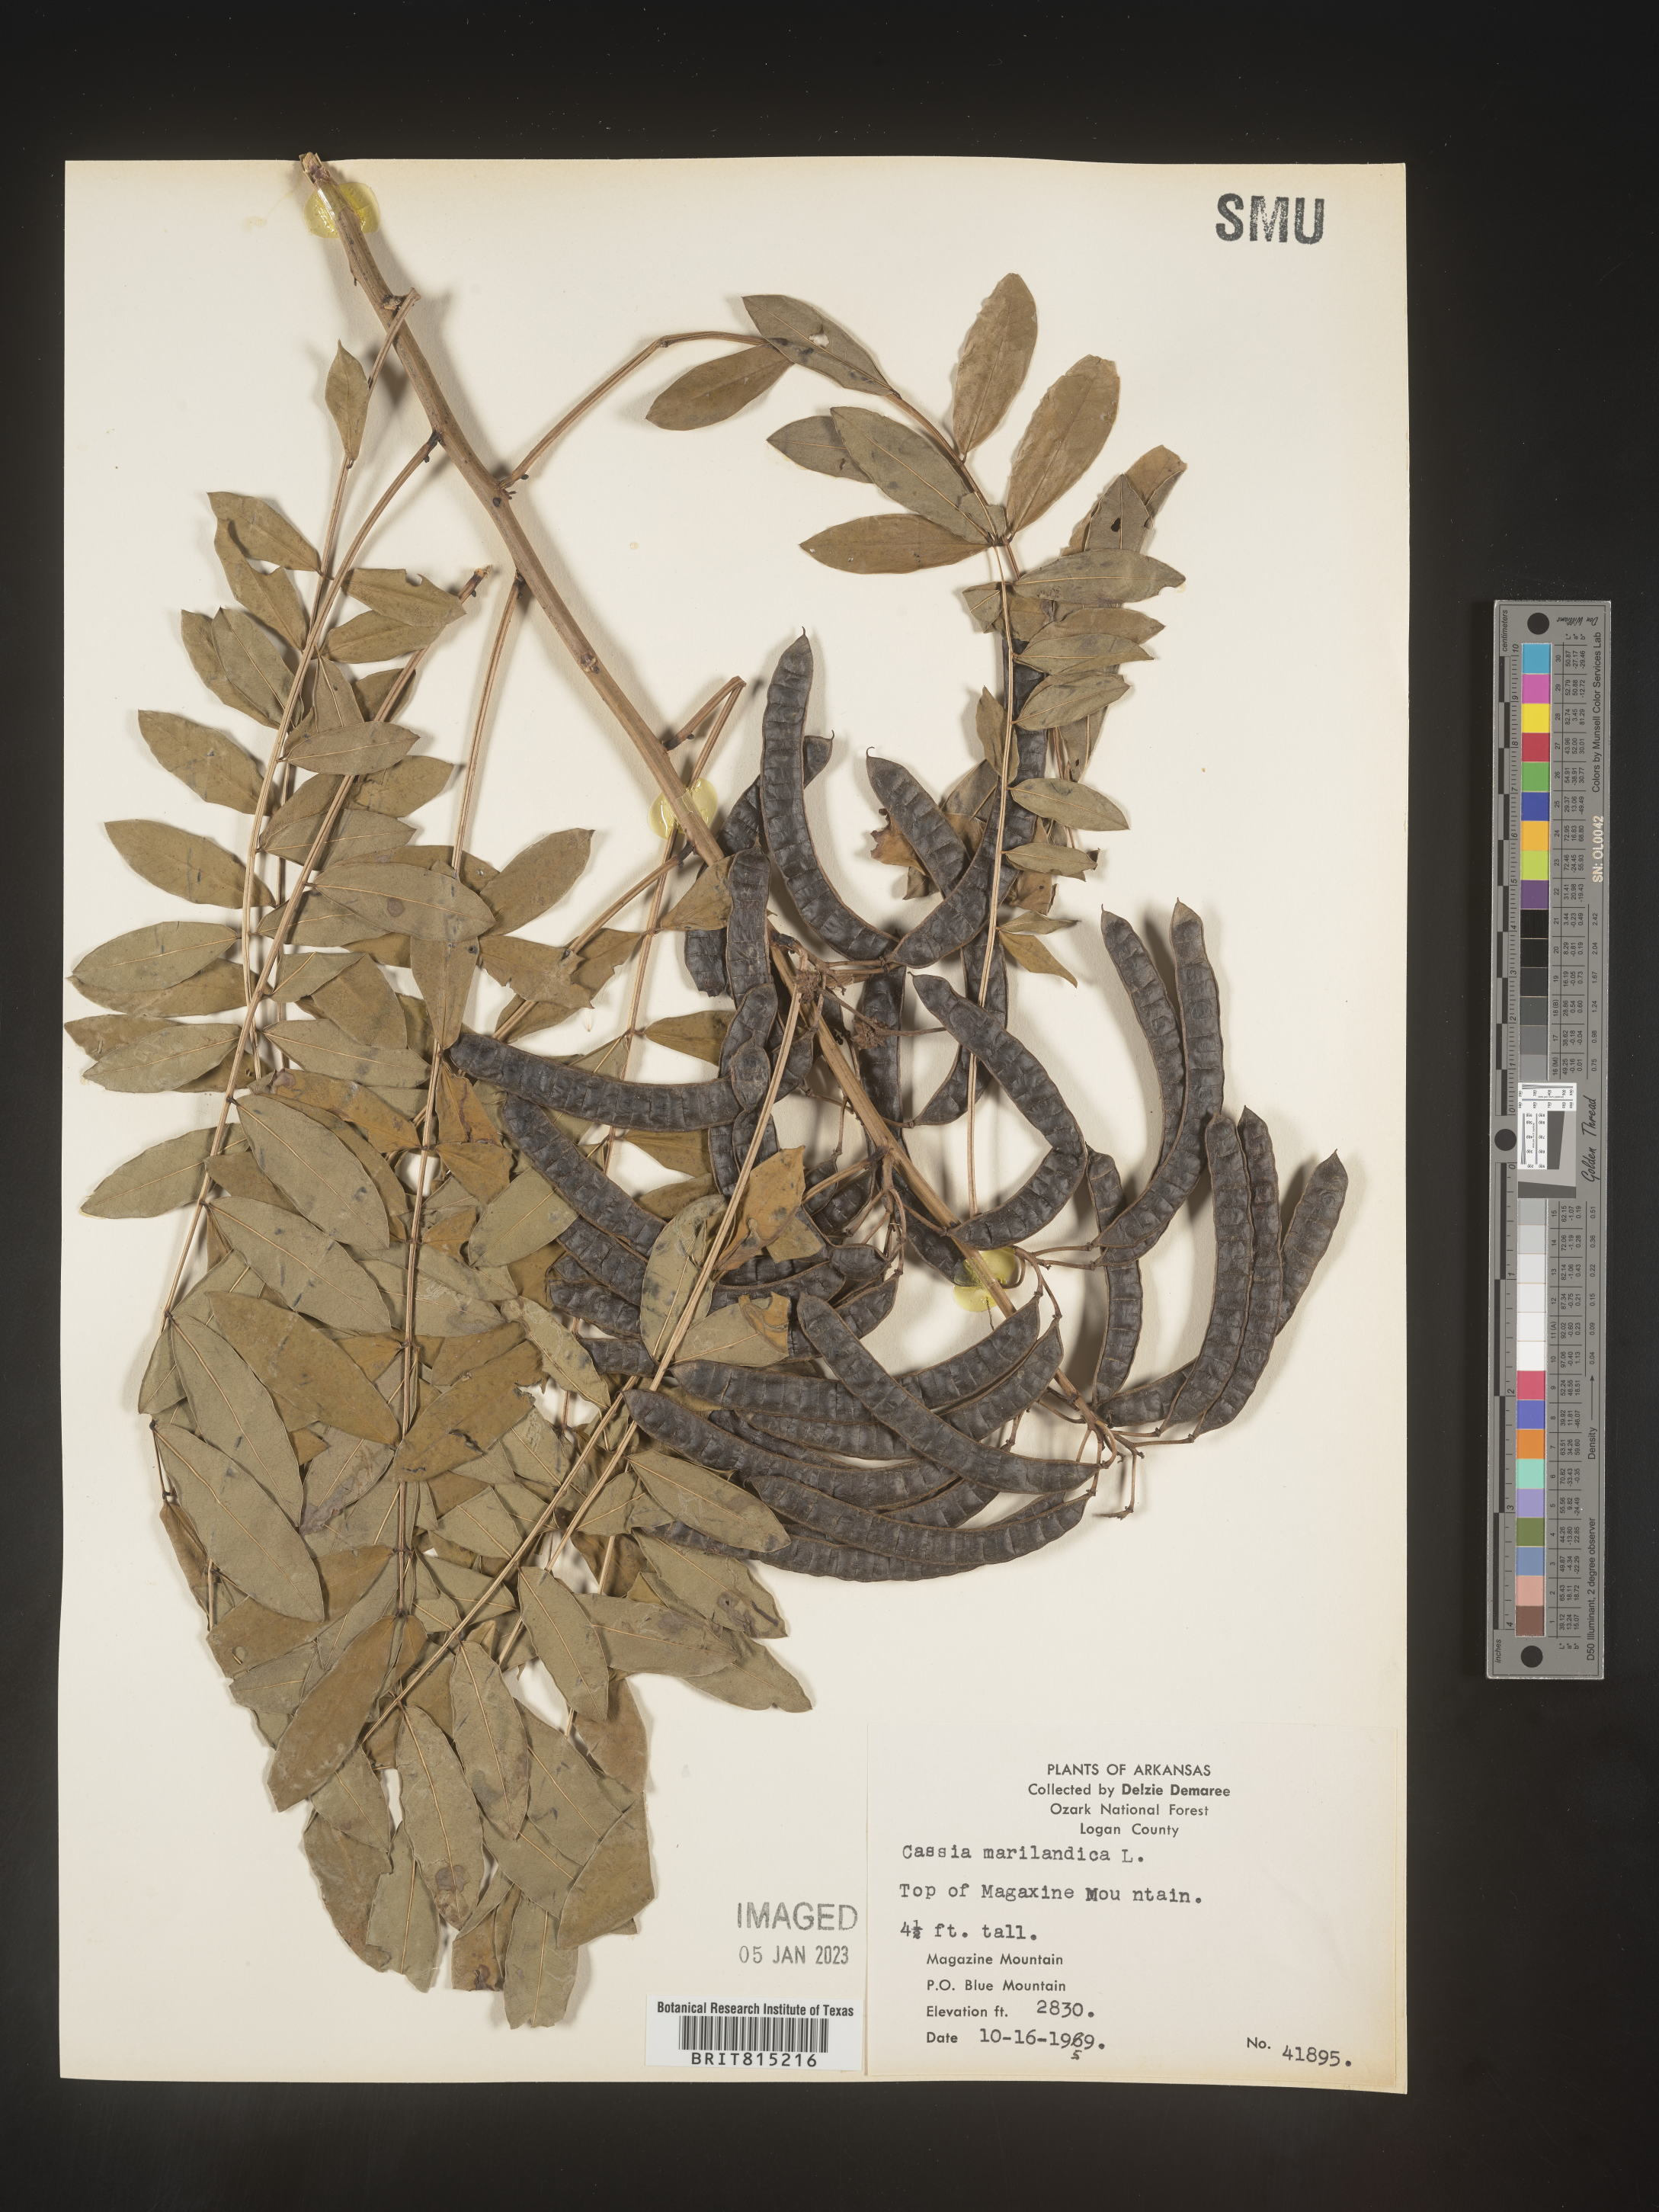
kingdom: Plantae
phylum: Tracheophyta
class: Magnoliopsida
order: Fabales
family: Fabaceae
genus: Senna
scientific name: Senna marilandica
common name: American senna
